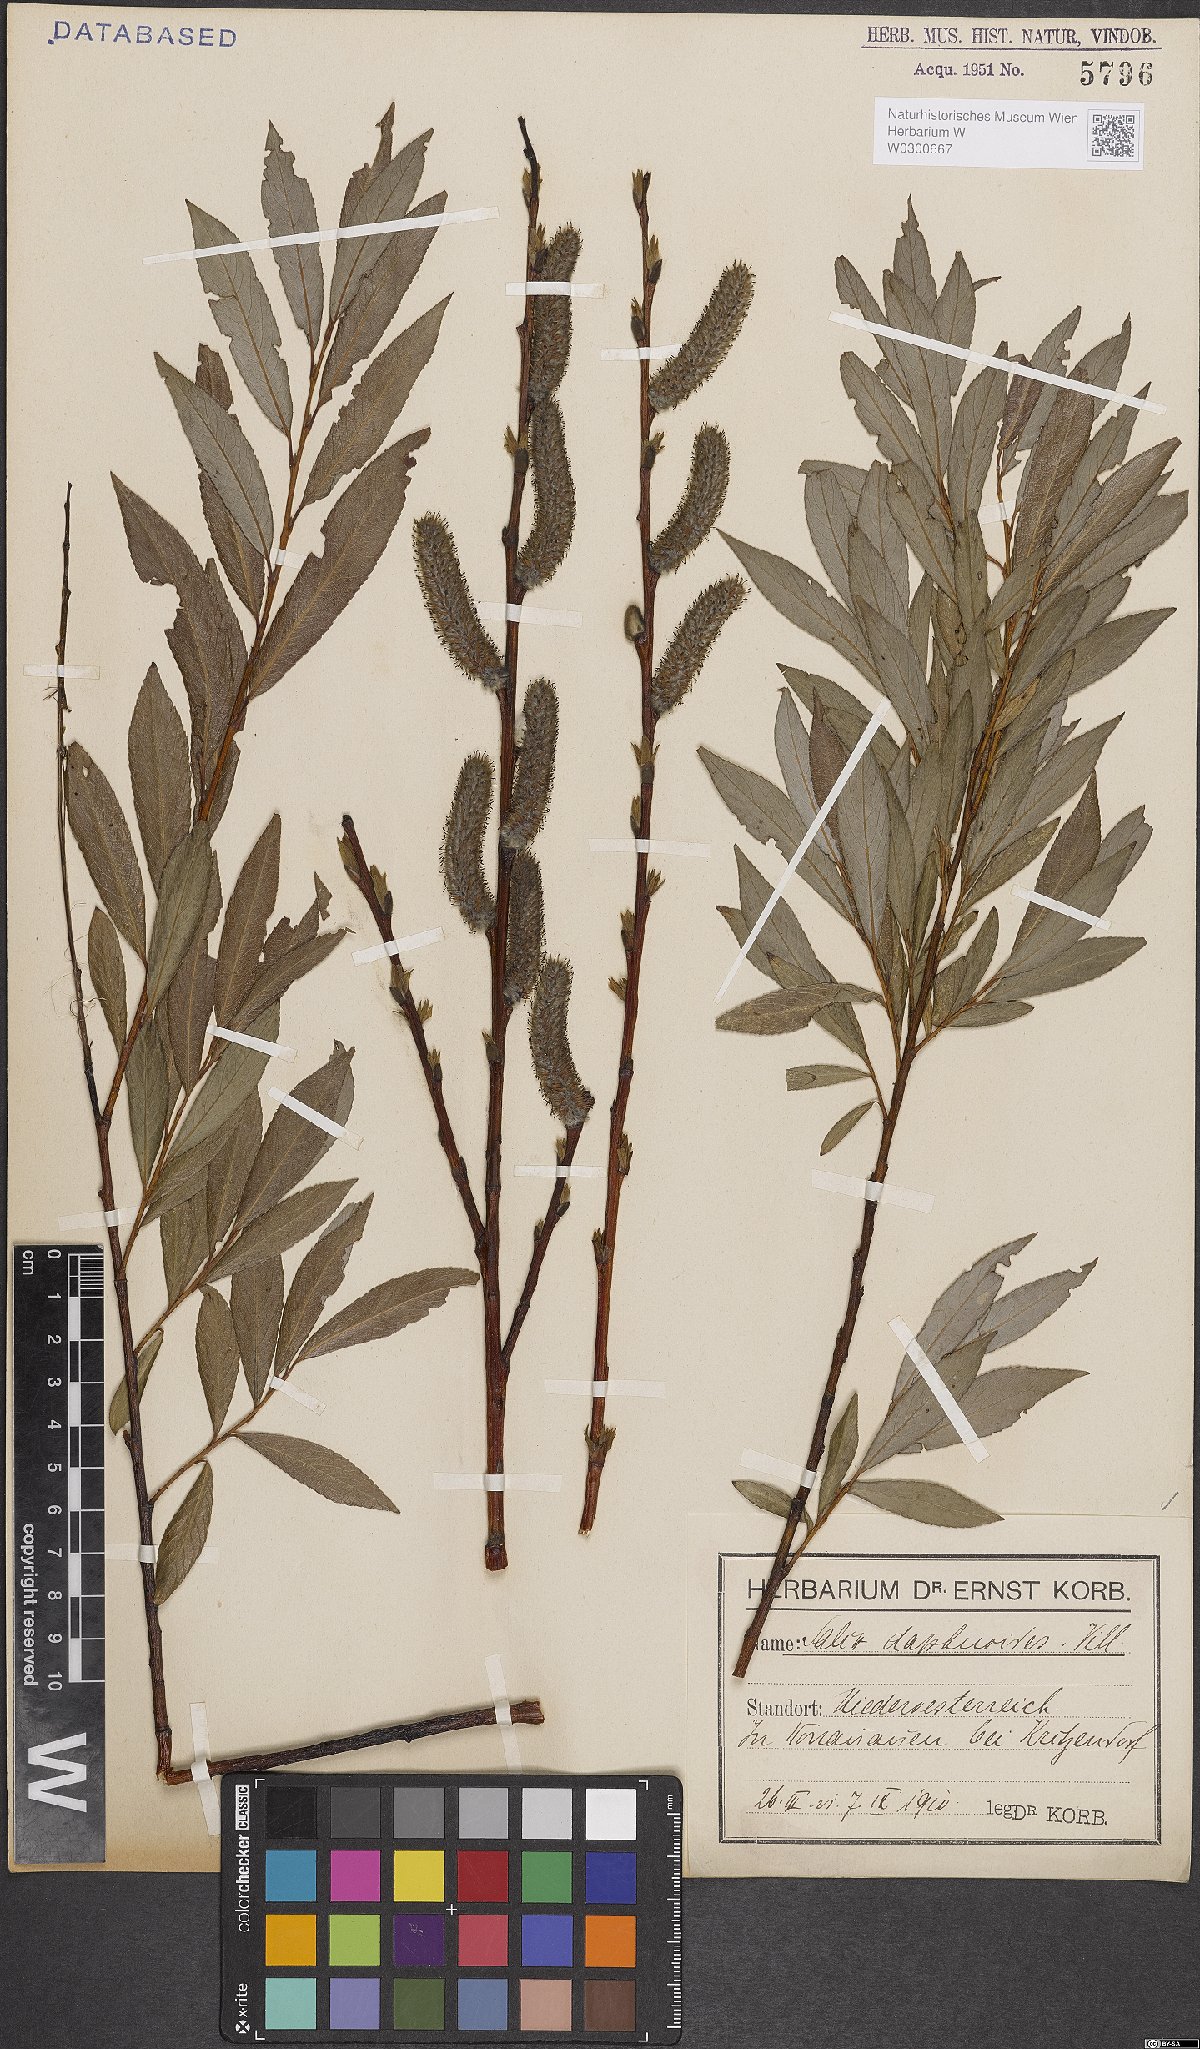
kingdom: Plantae
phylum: Tracheophyta
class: Magnoliopsida
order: Malpighiales
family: Salicaceae
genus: Salix
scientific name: Salix daphnoides
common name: European violet-willow
